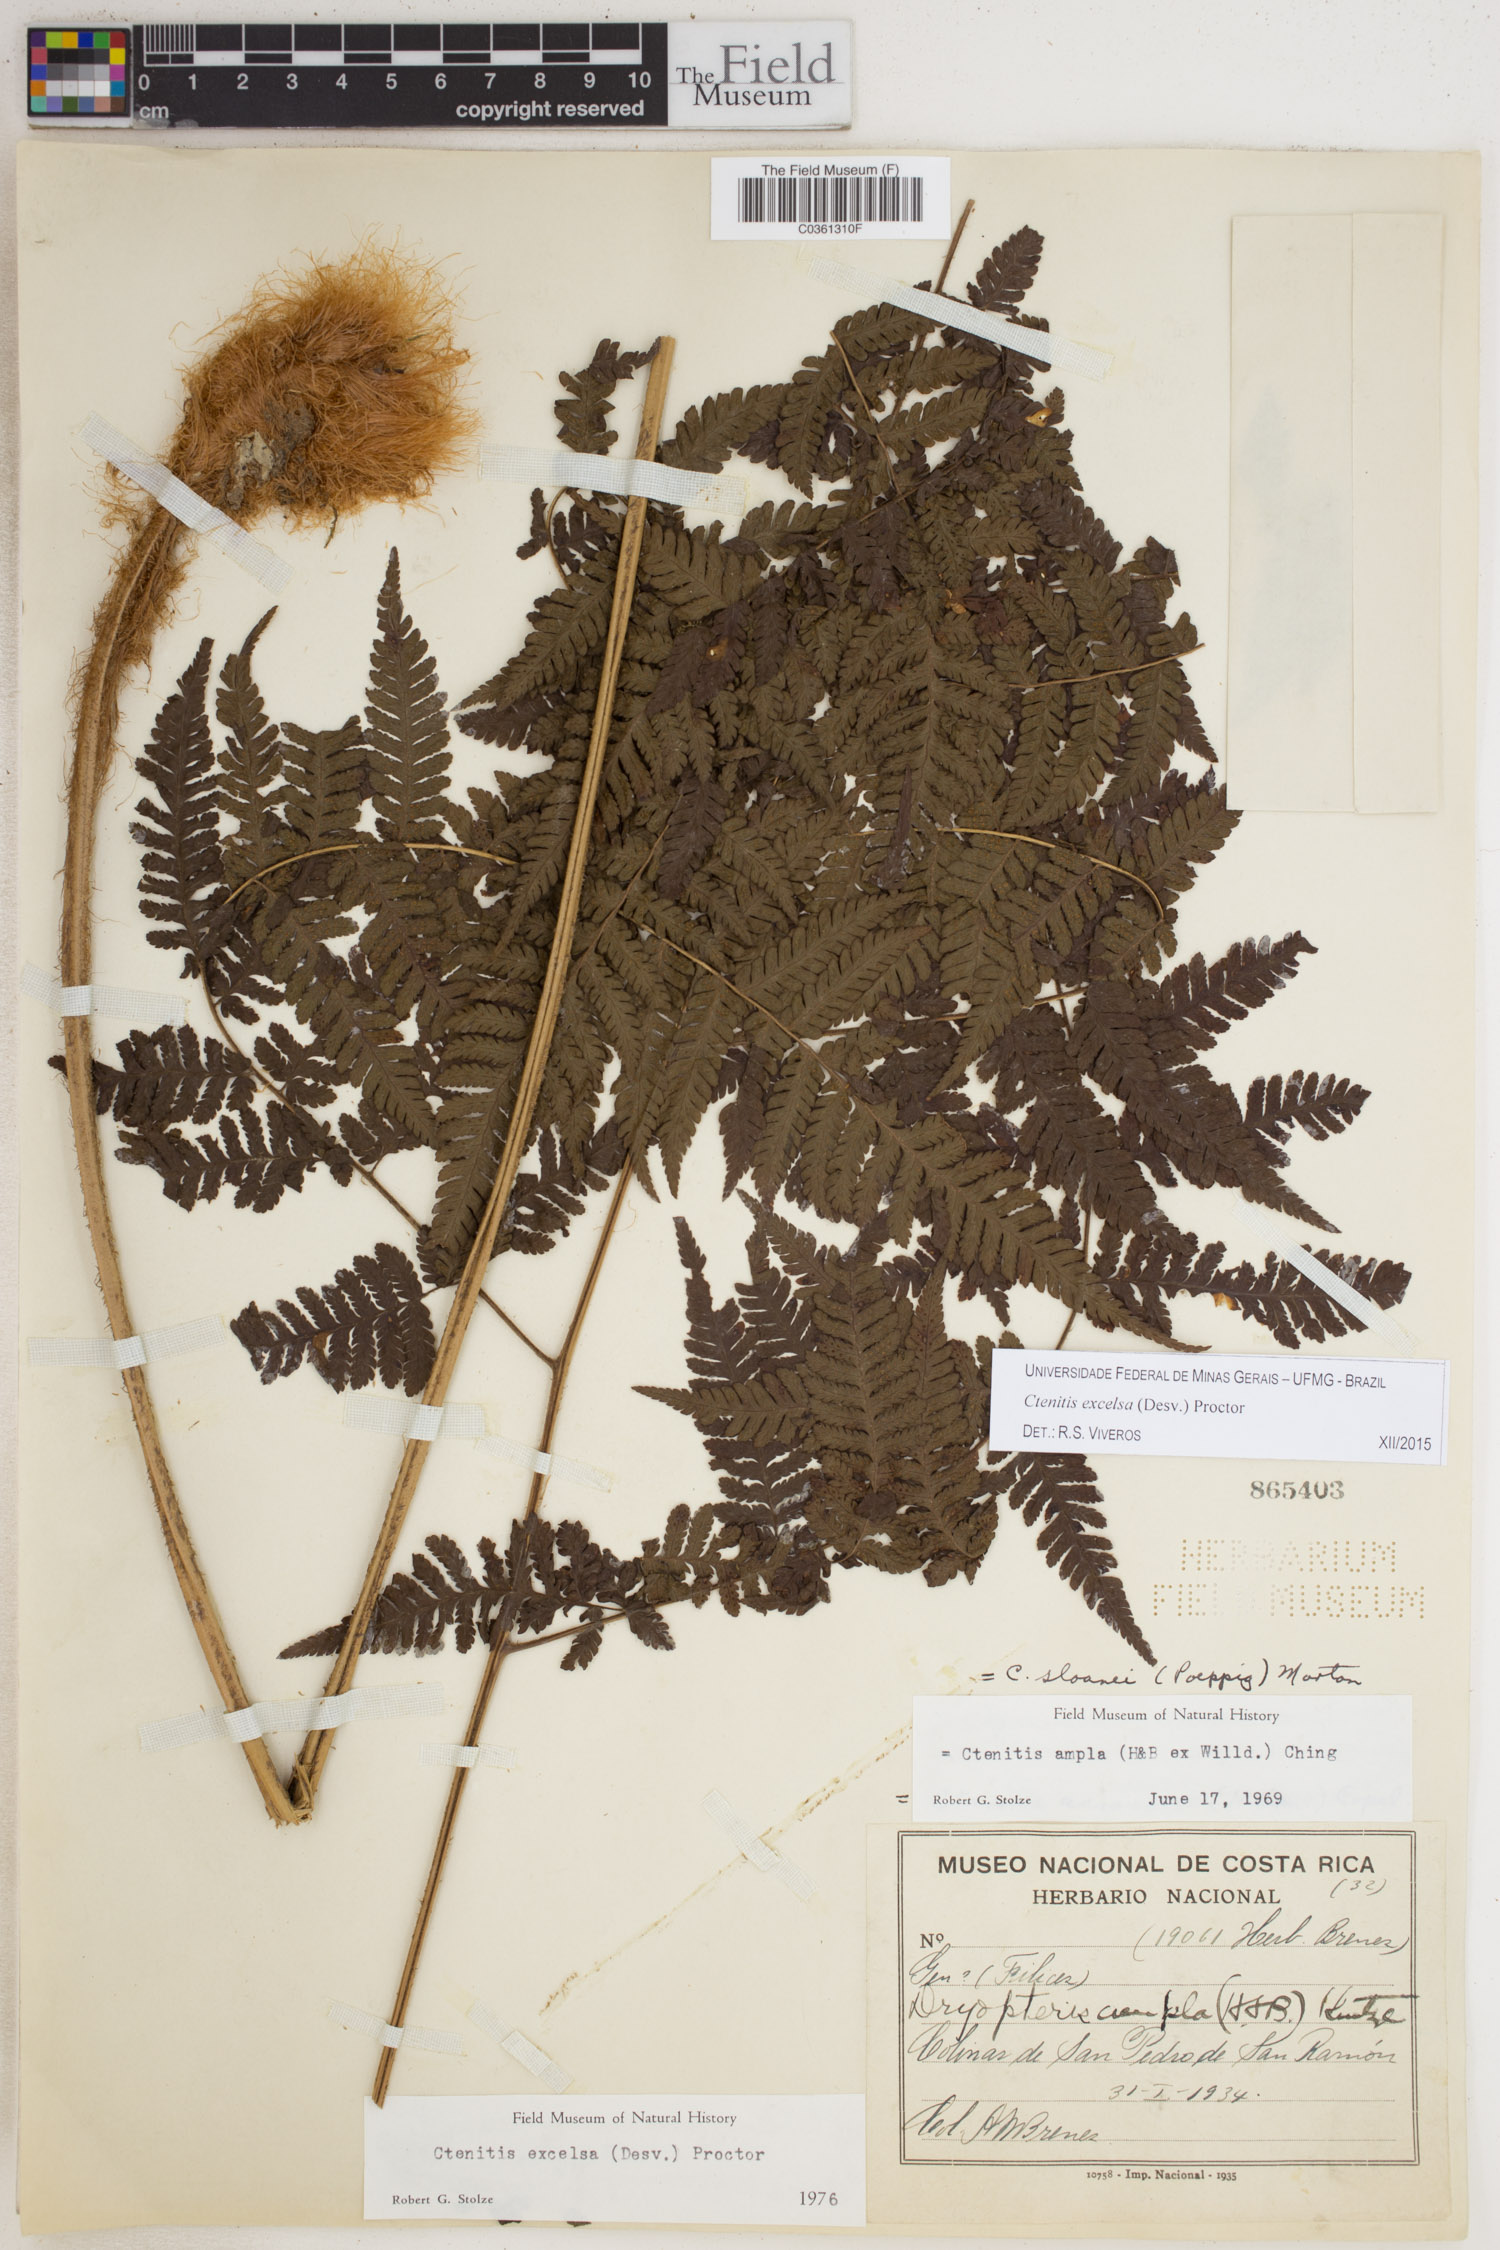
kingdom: Plantae
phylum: Tracheophyta
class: Polypodiopsida
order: Polypodiales
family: Dryopteridaceae
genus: Ctenitis
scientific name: Ctenitis excelsa
